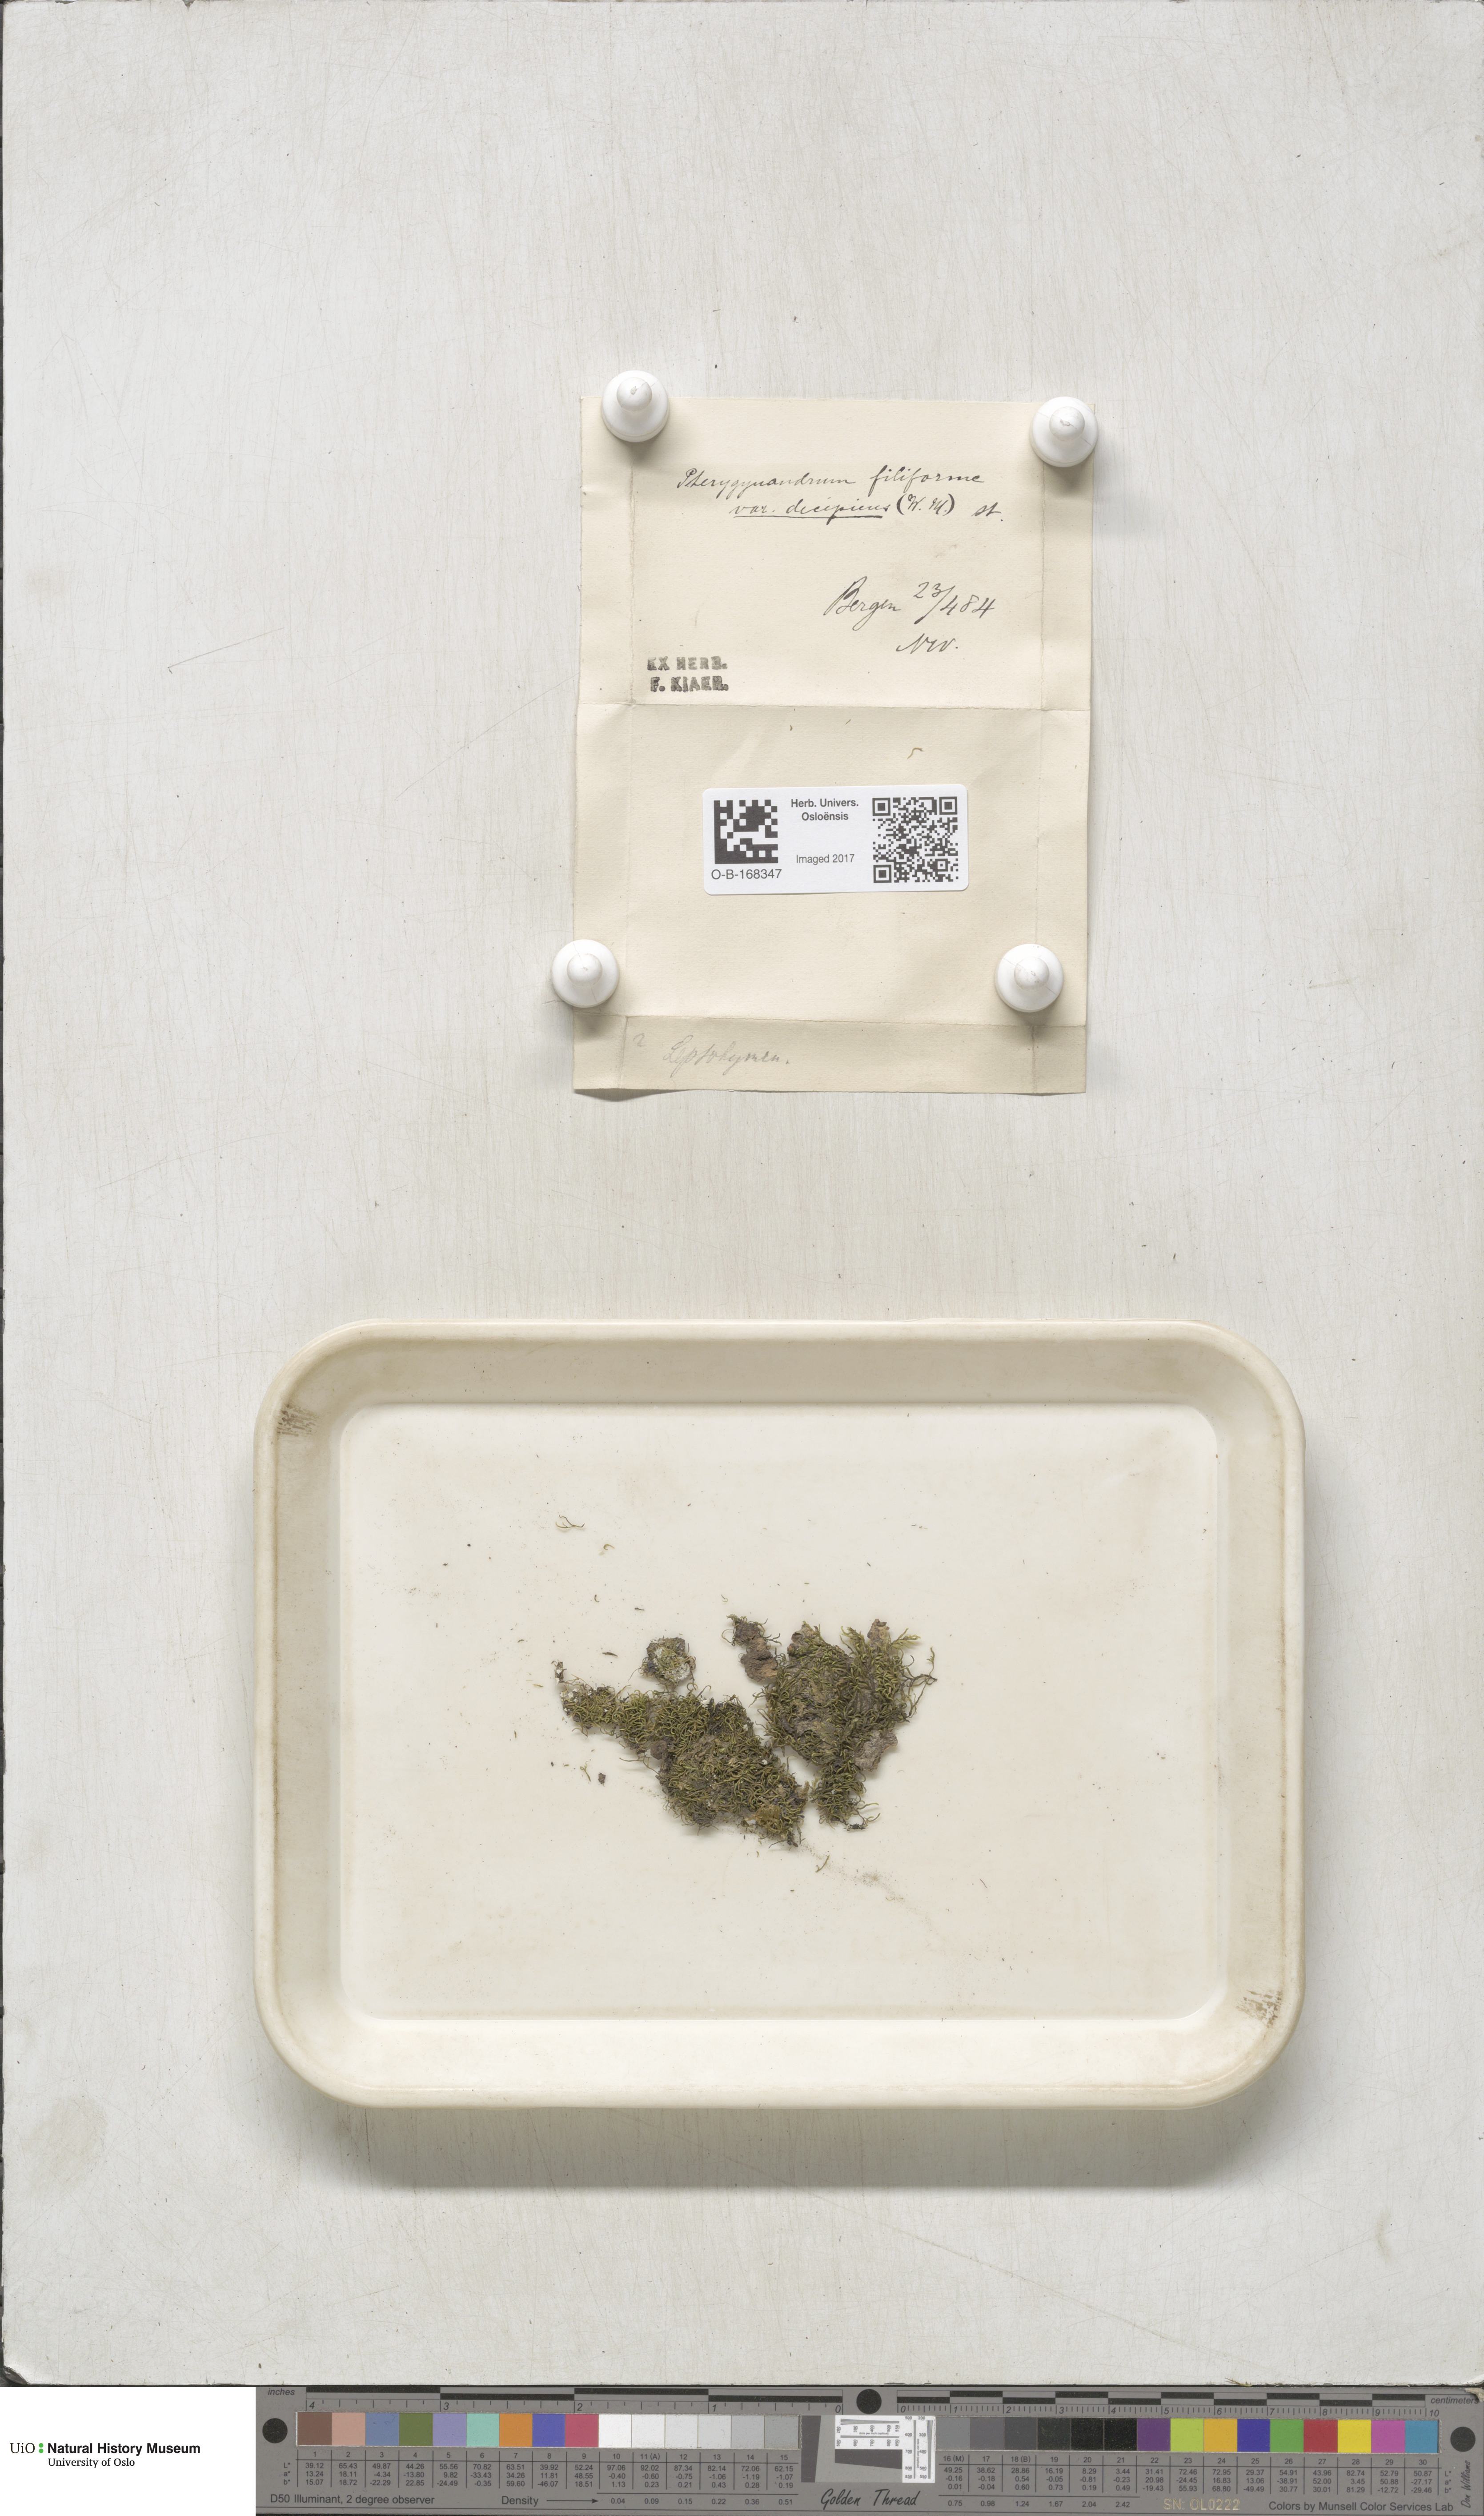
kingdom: Plantae
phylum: Bryophyta
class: Bryopsida
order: Hypnales
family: Pterigynandraceae
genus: Pterigynandrum
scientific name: Pterigynandrum filiforme
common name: Capillary wing moss
